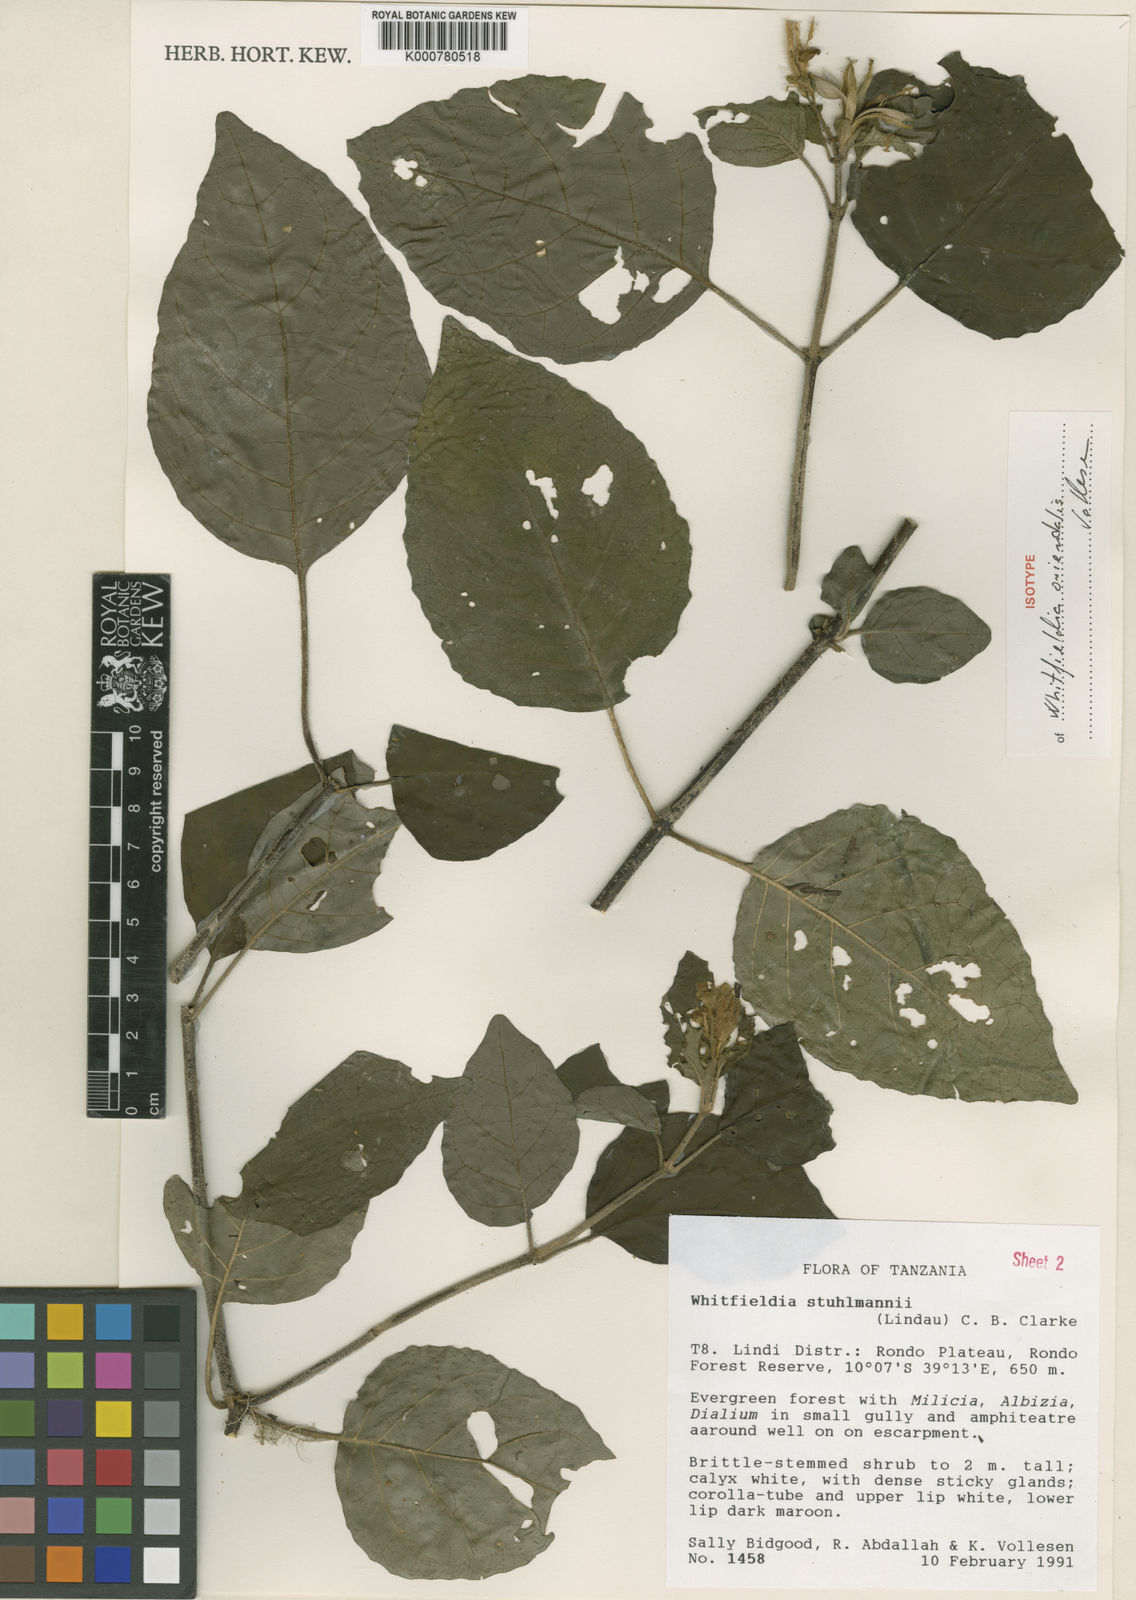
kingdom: Plantae
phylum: Tracheophyta
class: Magnoliopsida
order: Lamiales
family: Acanthaceae
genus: Whitfieldia
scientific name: Whitfieldia orientalis
